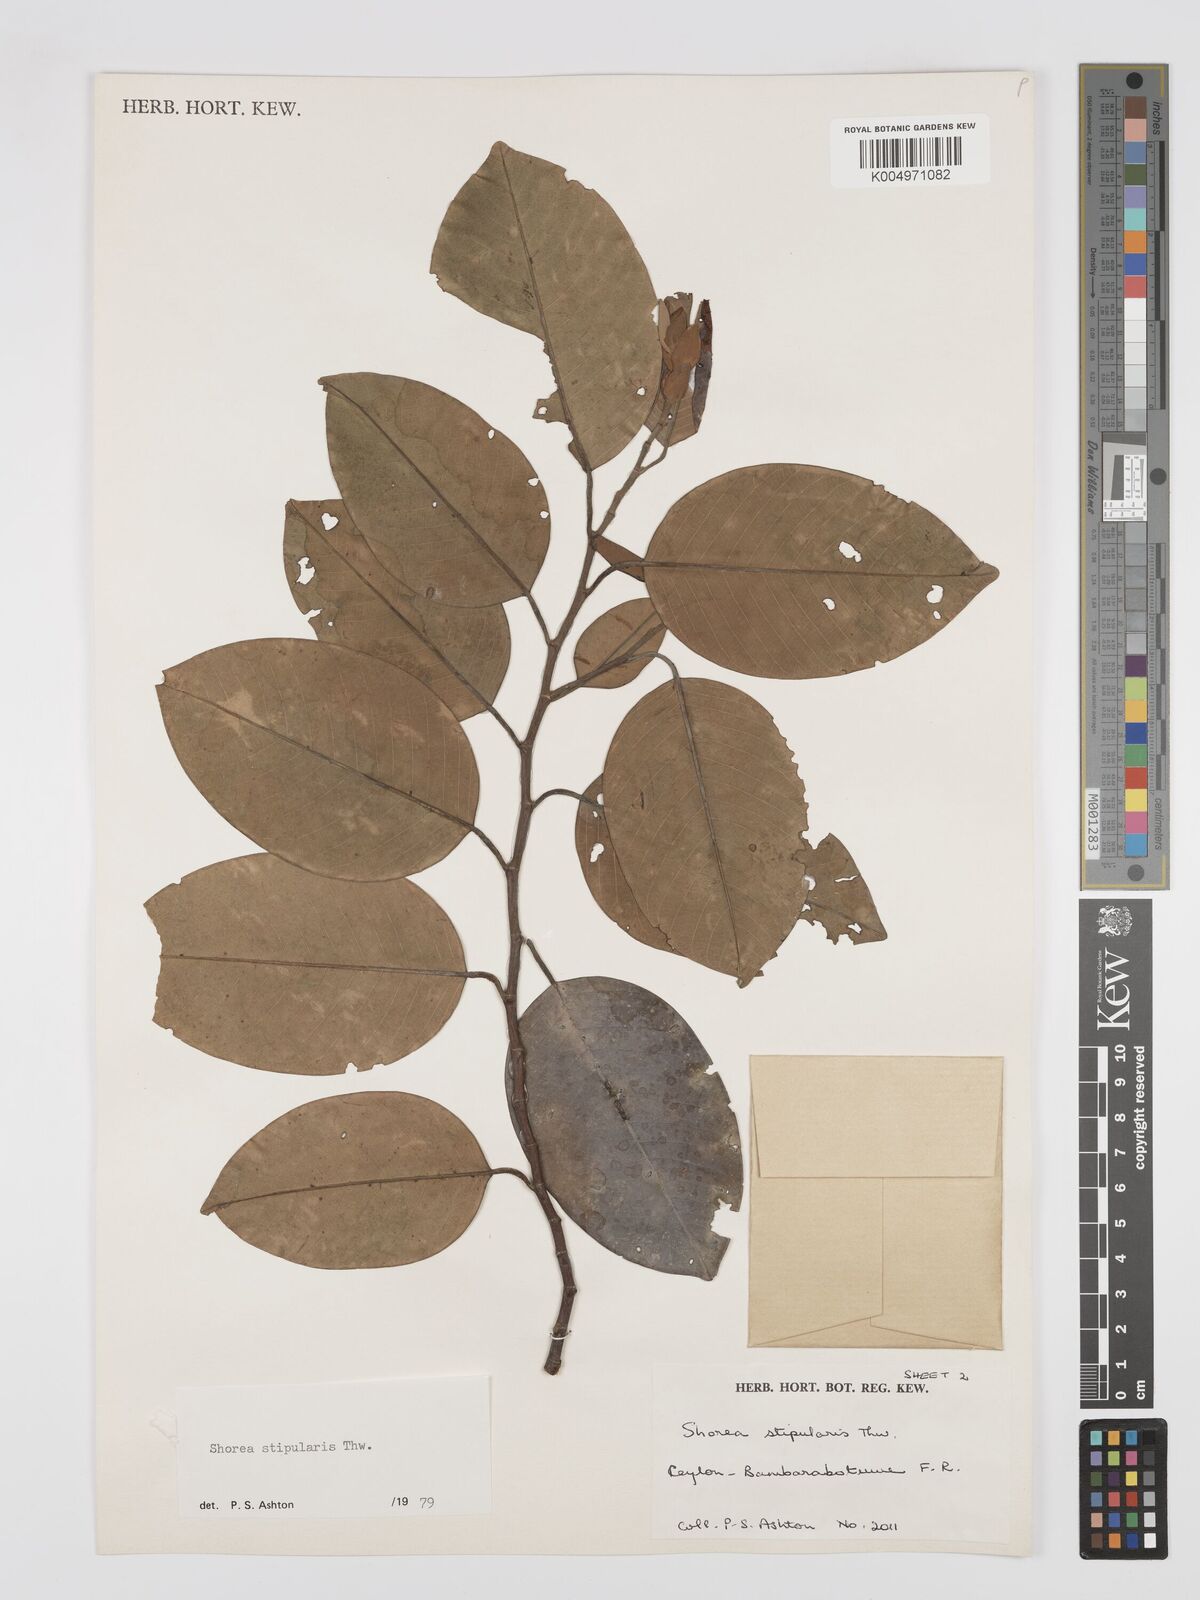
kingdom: Plantae
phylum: Tracheophyta
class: Magnoliopsida
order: Malvales
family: Dipterocarpaceae
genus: Anthoshorea
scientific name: Anthoshorea stipularis
